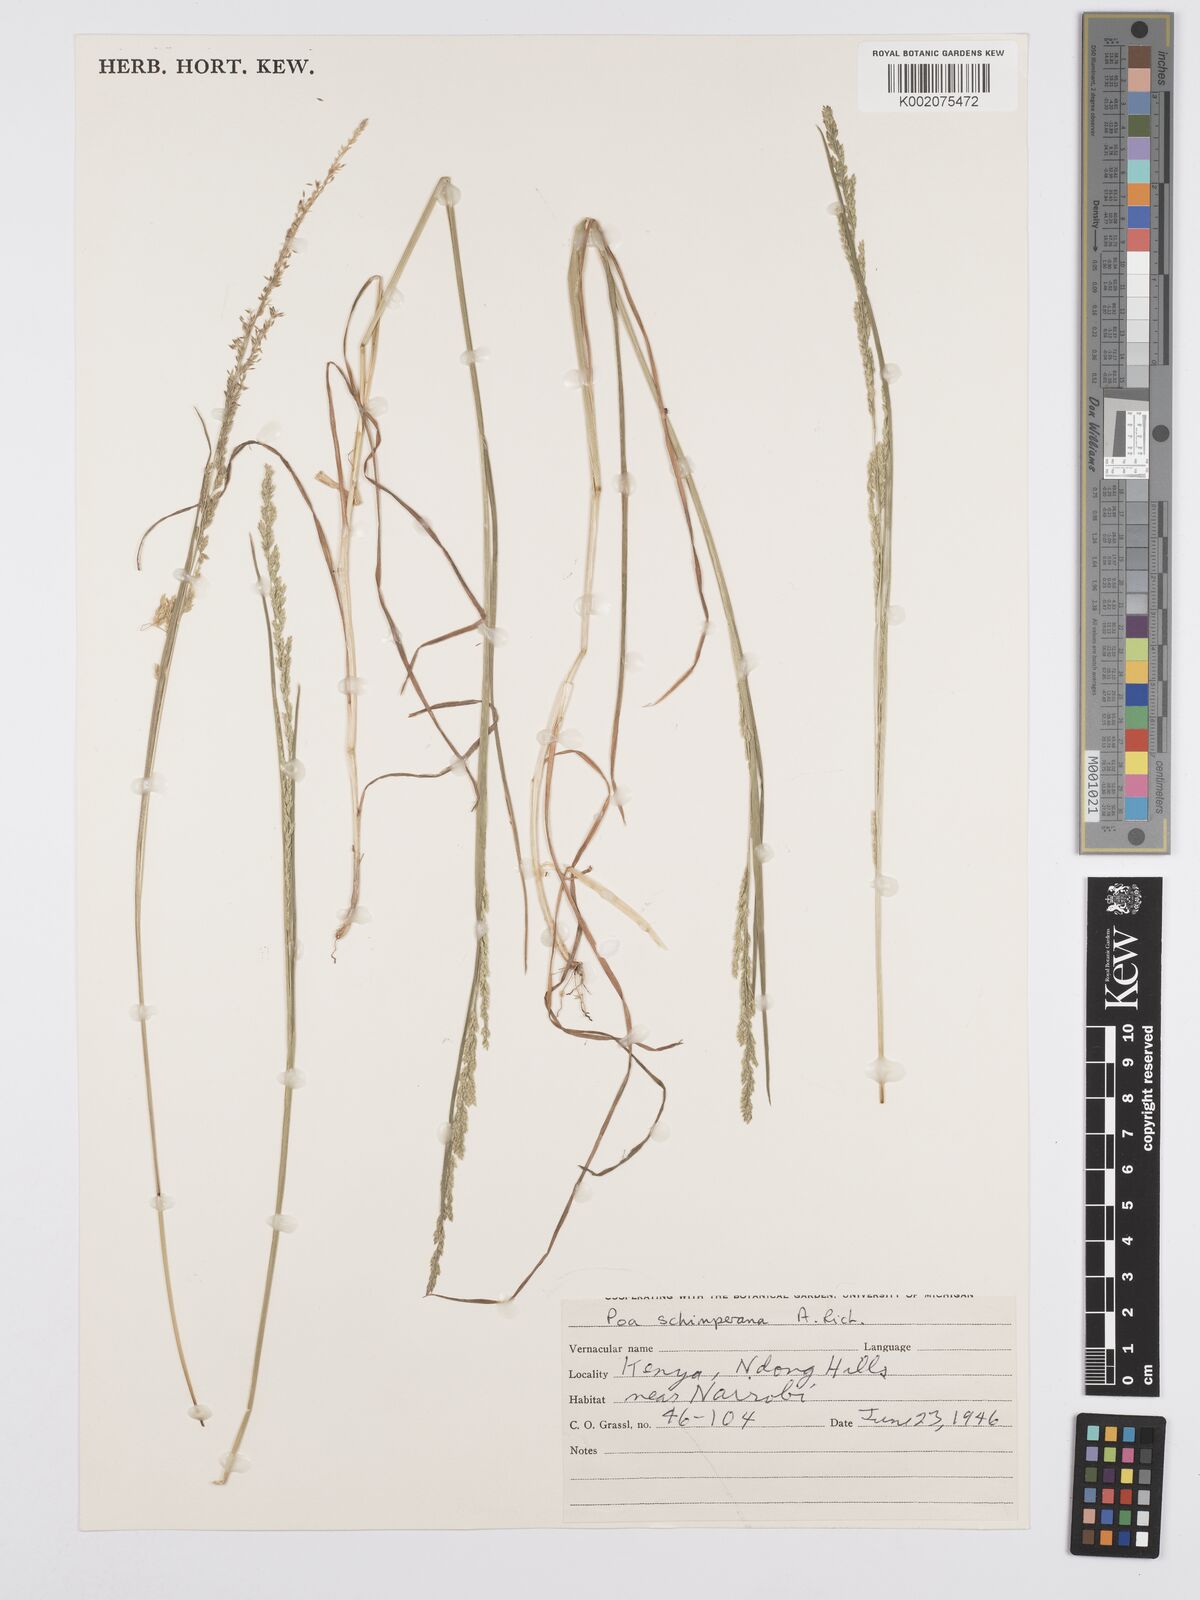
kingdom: Plantae
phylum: Tracheophyta
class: Liliopsida
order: Poales
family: Poaceae
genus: Poa
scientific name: Poa leptoclada
